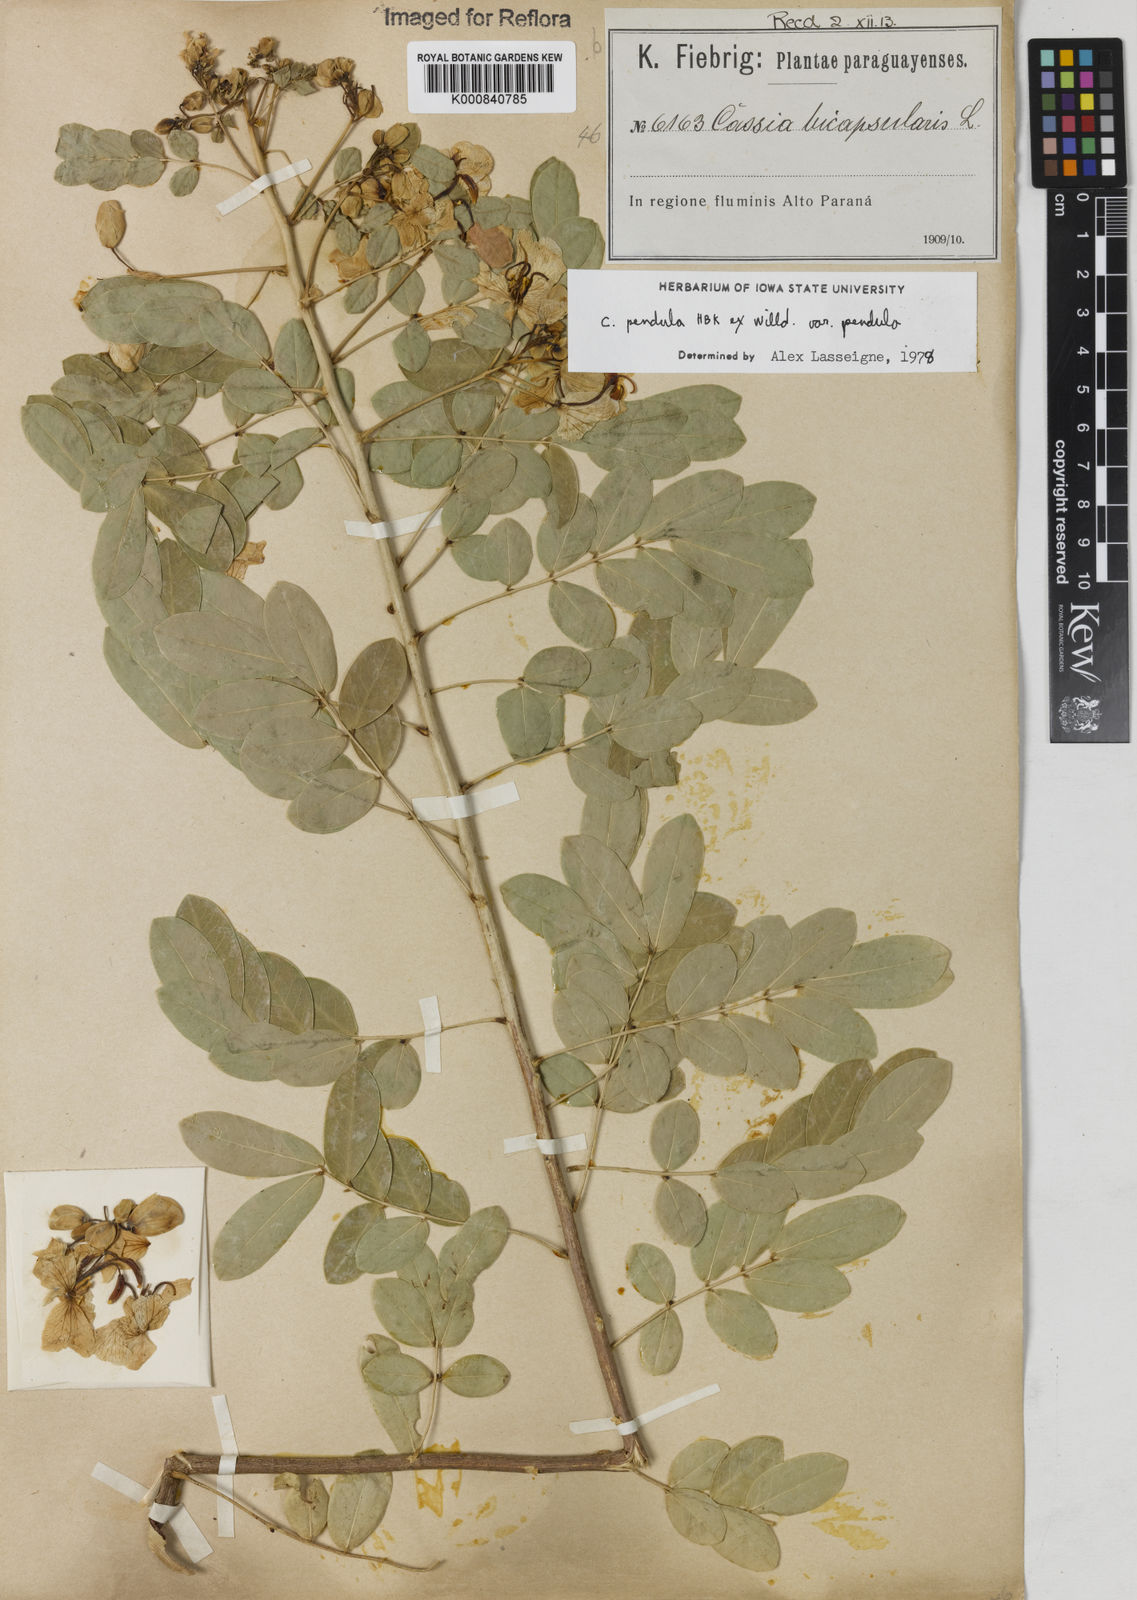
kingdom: Plantae
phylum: Tracheophyta
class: Magnoliopsida
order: Fabales
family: Fabaceae
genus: Senna
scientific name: Senna pendula
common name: Easter cassia
